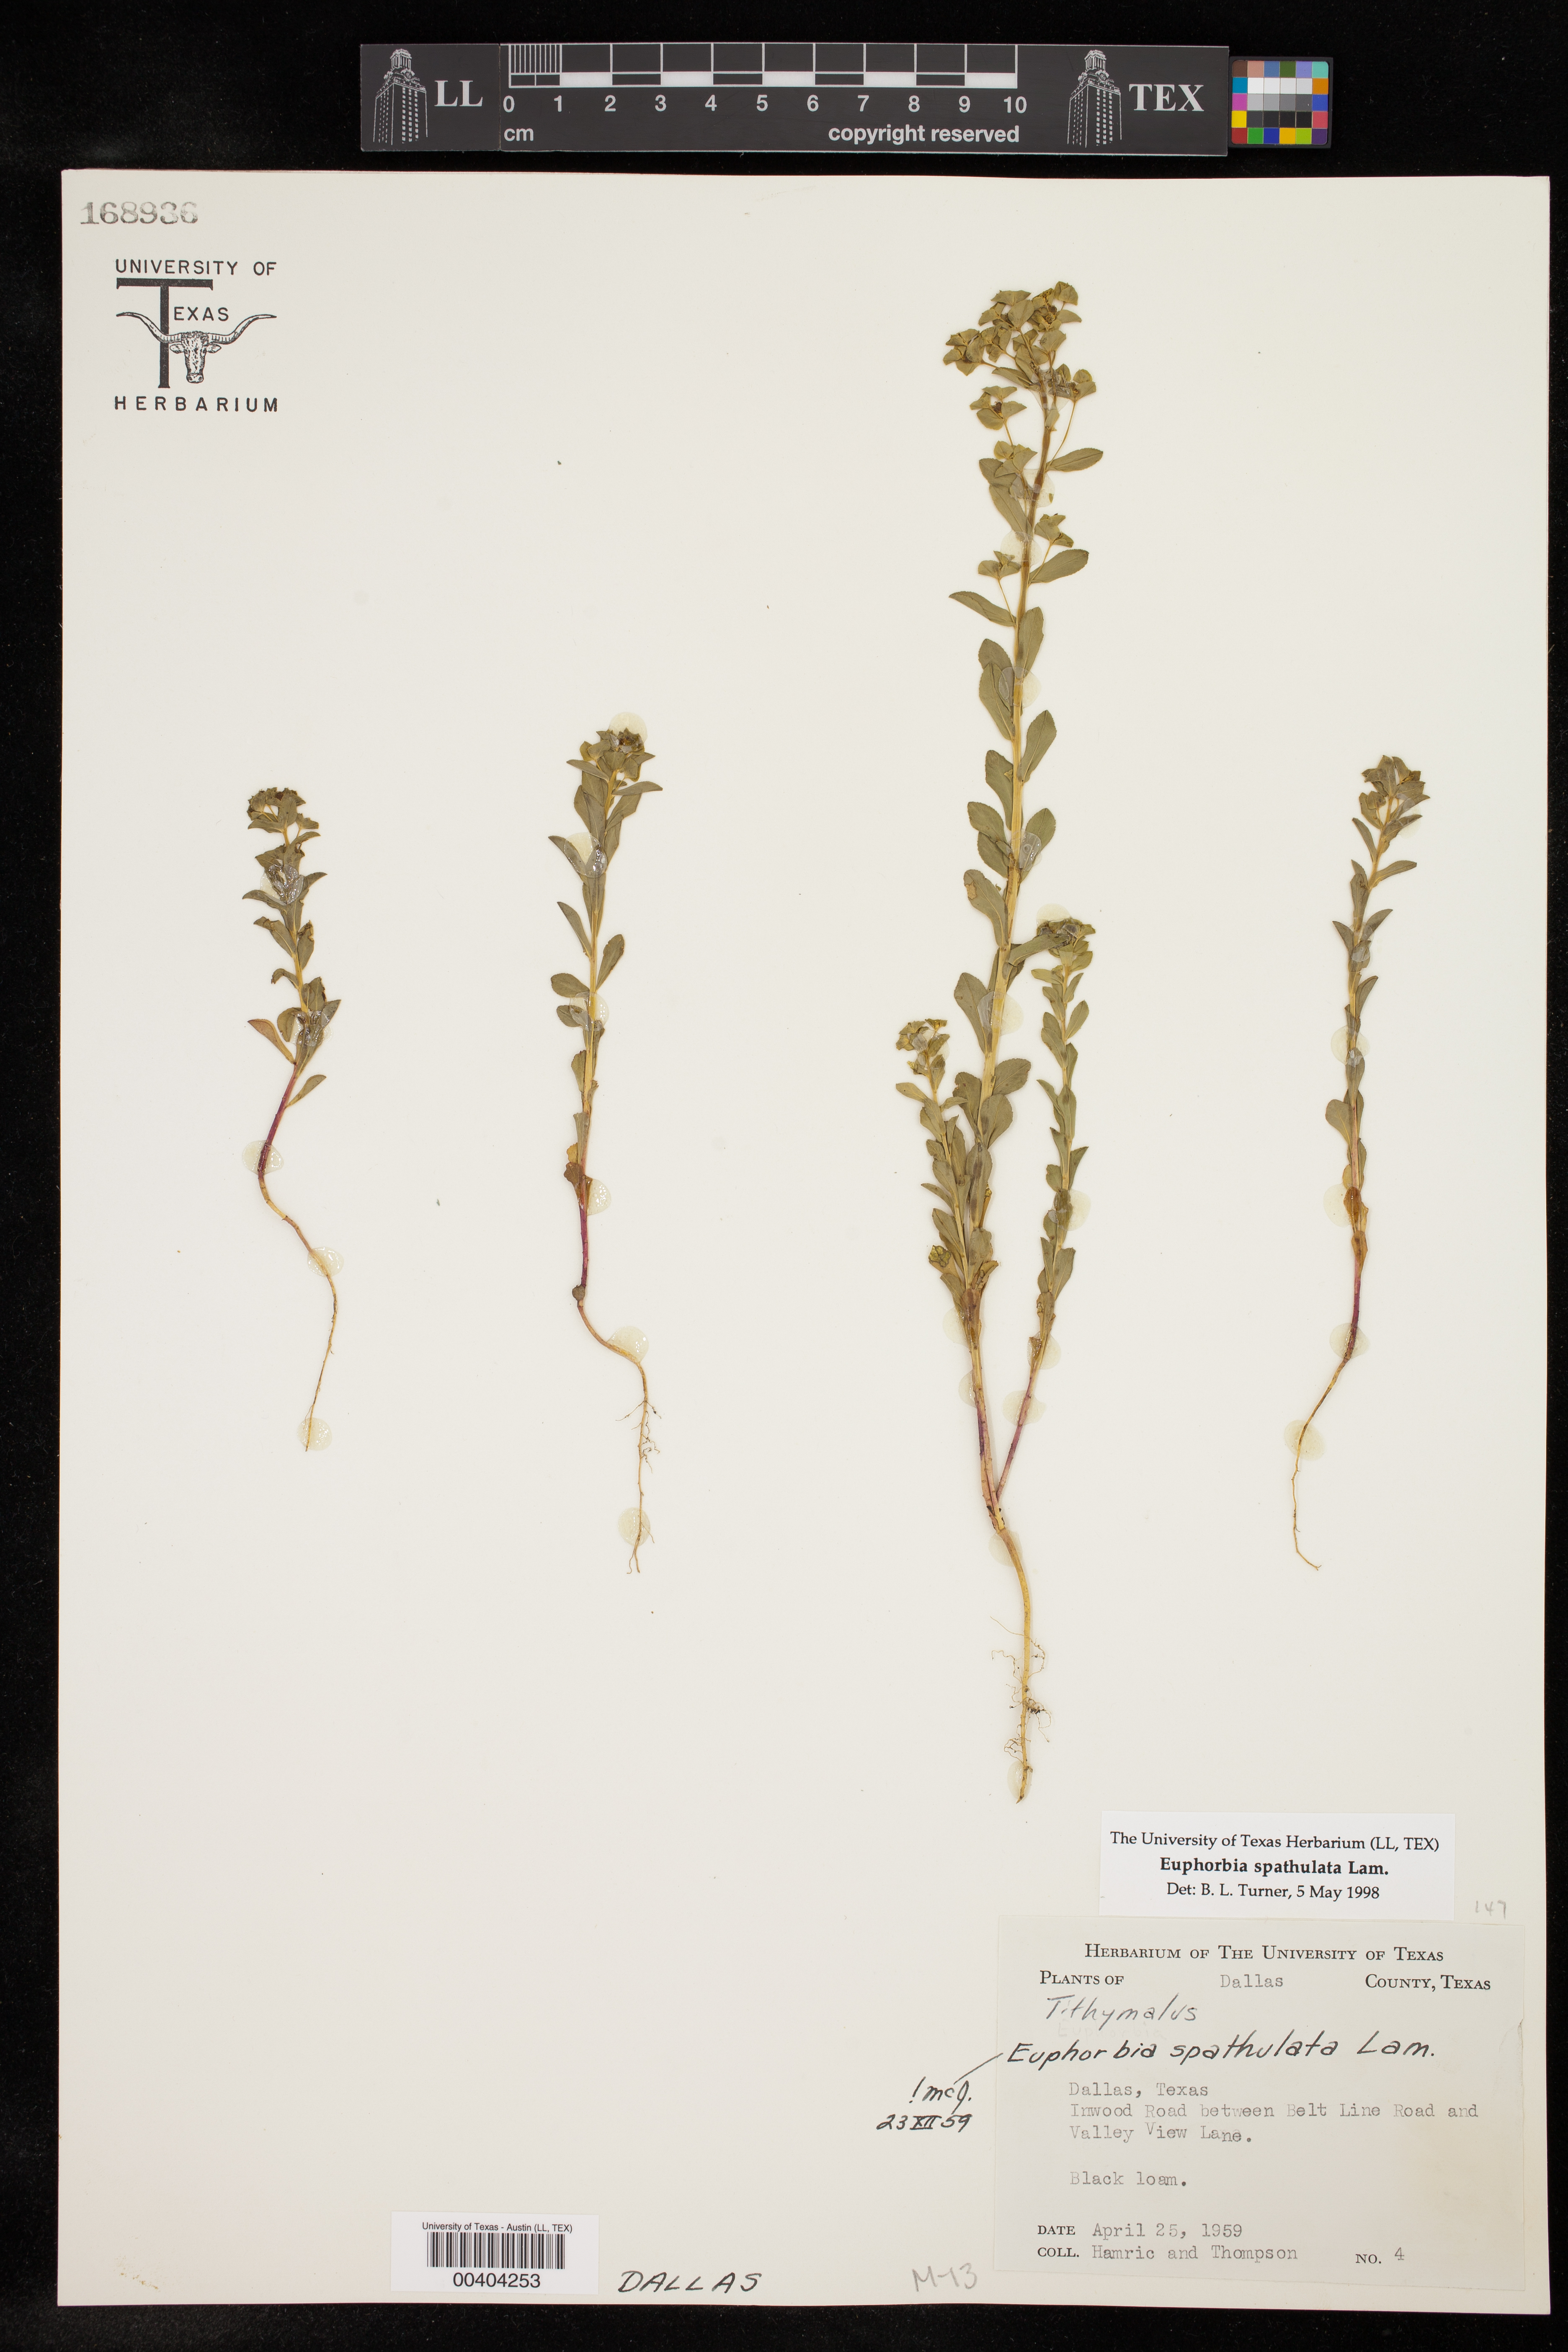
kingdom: Plantae
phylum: Tracheophyta
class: Magnoliopsida
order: Malpighiales
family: Euphorbiaceae
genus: Euphorbia
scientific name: Euphorbia spathulata
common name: Blunt spurge
